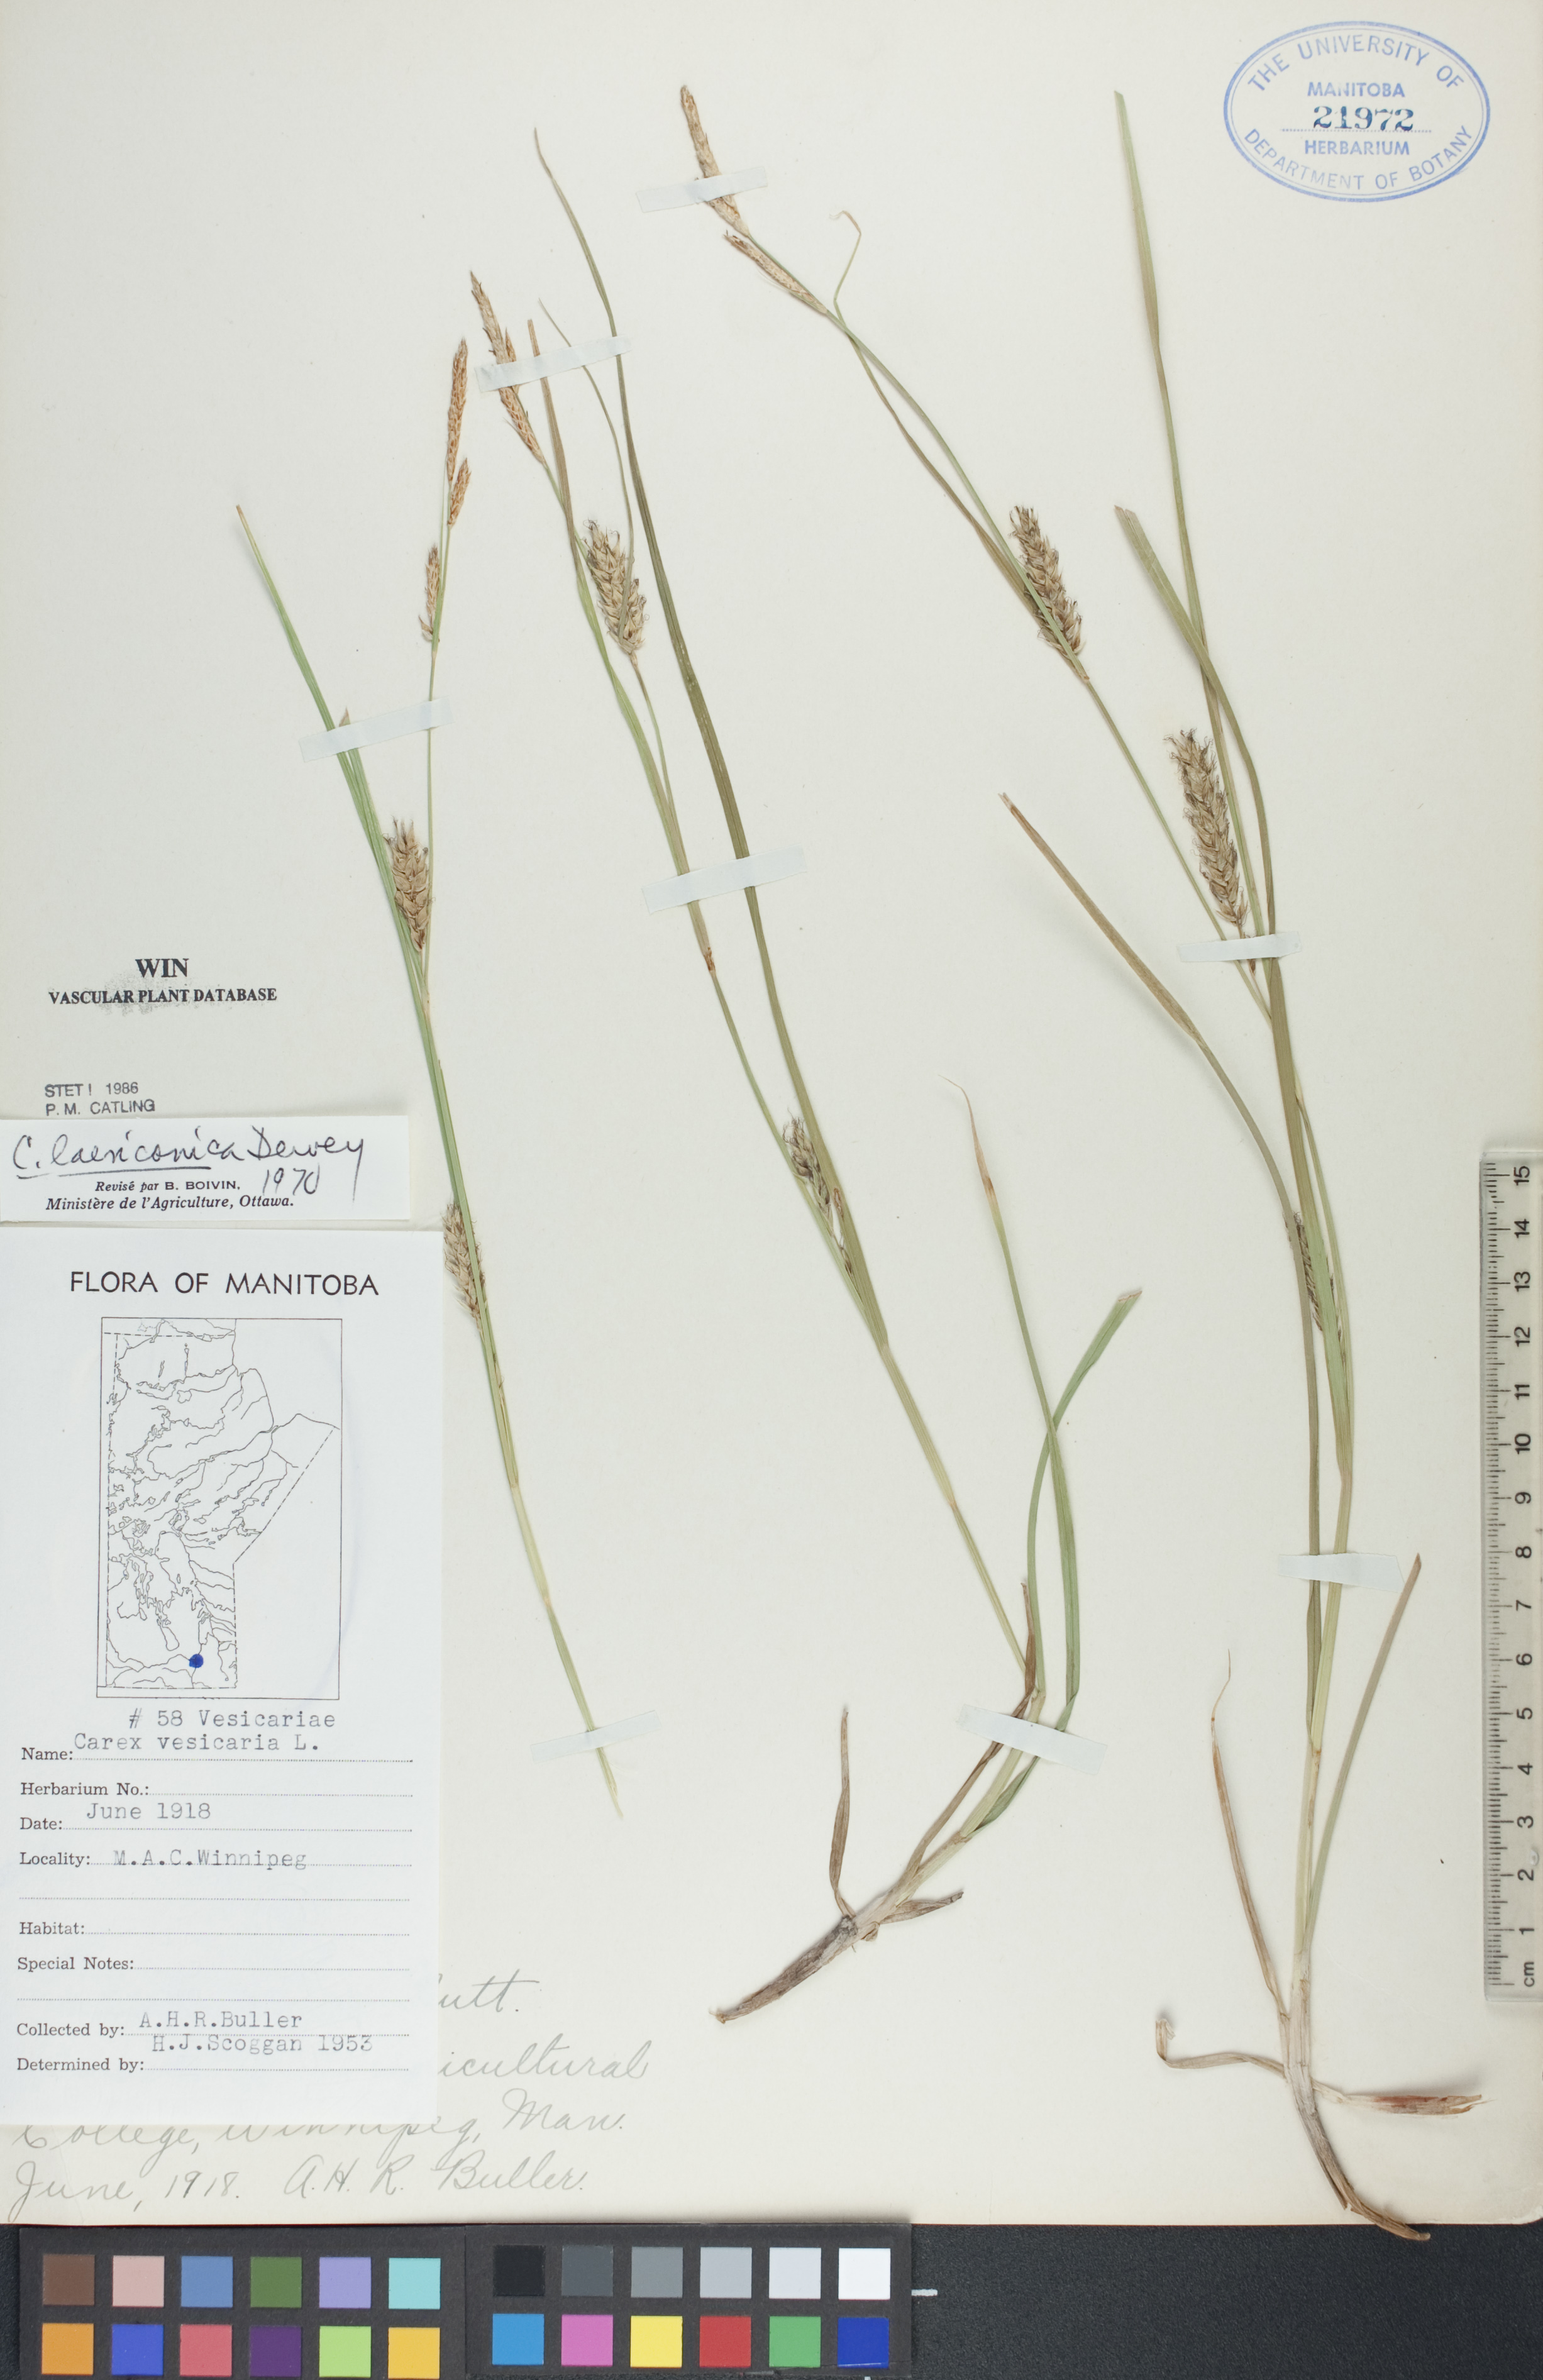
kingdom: Plantae
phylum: Tracheophyta
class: Liliopsida
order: Poales
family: Cyperaceae
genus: Carex
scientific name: Carex laeviconica
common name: Plains slough sedge
